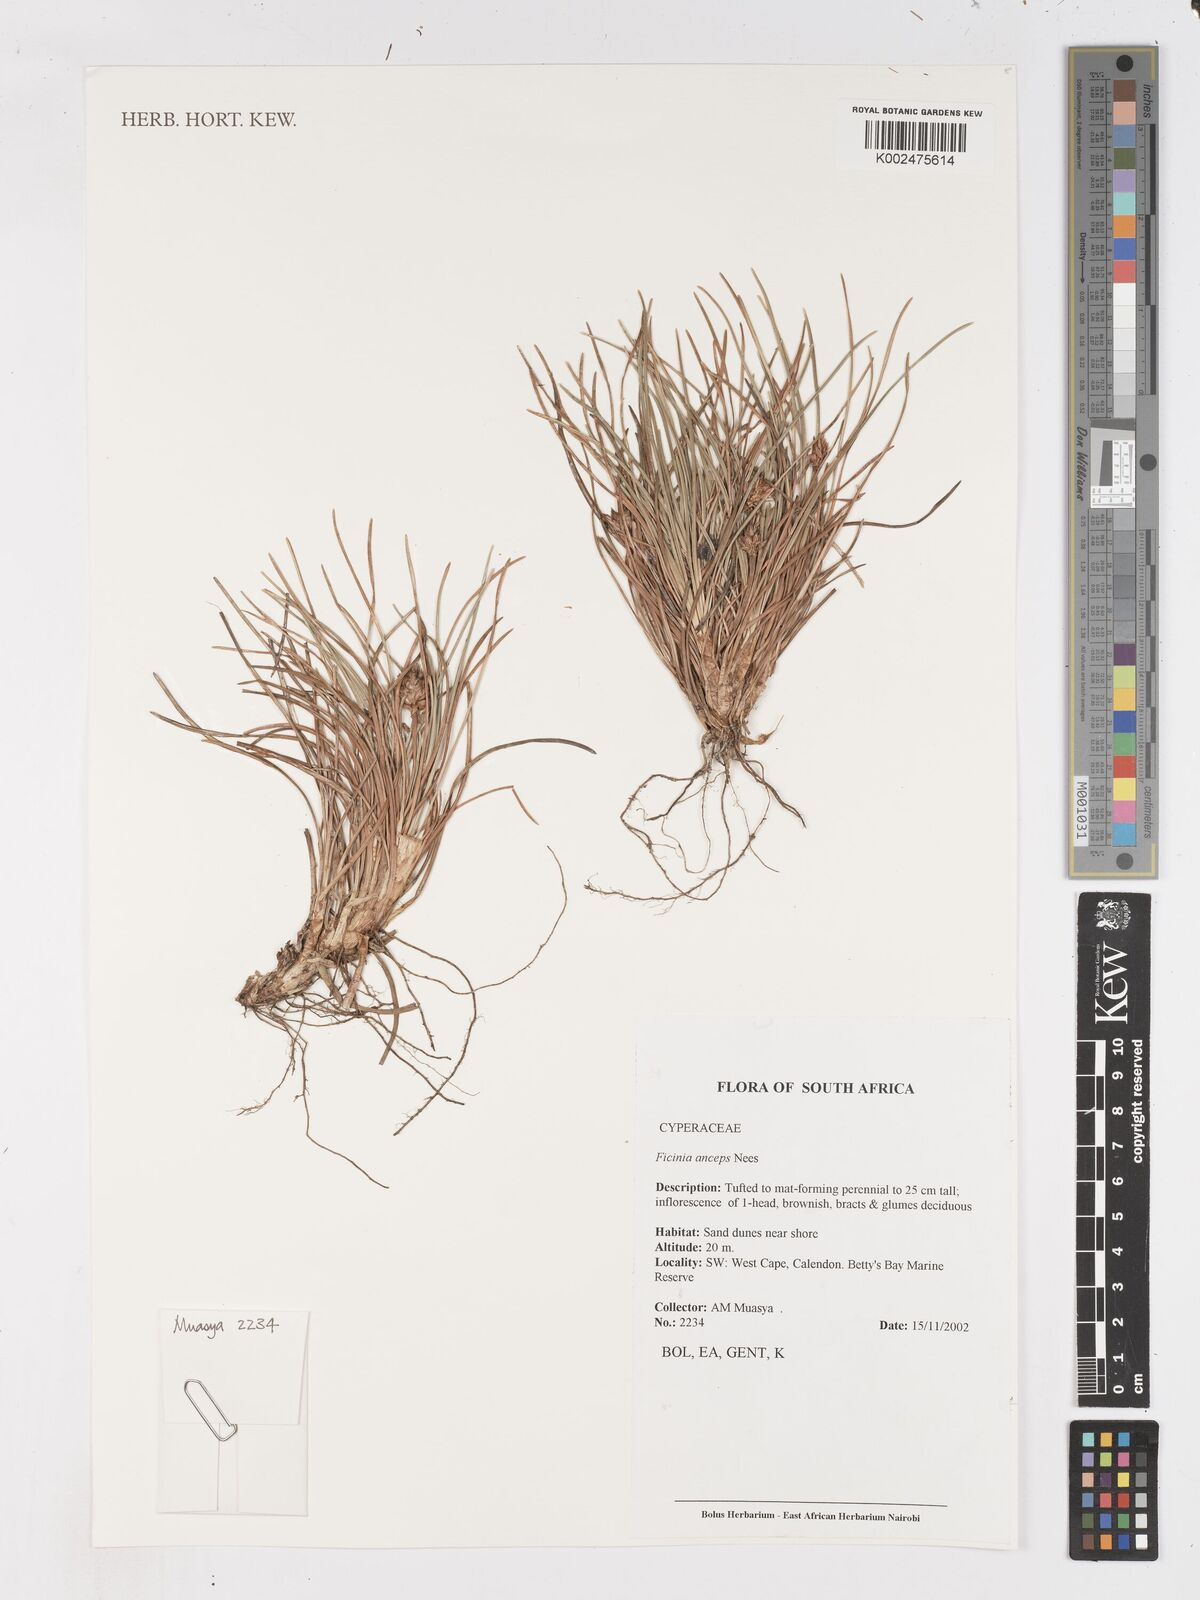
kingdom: Plantae
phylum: Tracheophyta
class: Liliopsida
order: Poales
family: Cyperaceae
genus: Ficinia
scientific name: Ficinia anceps
